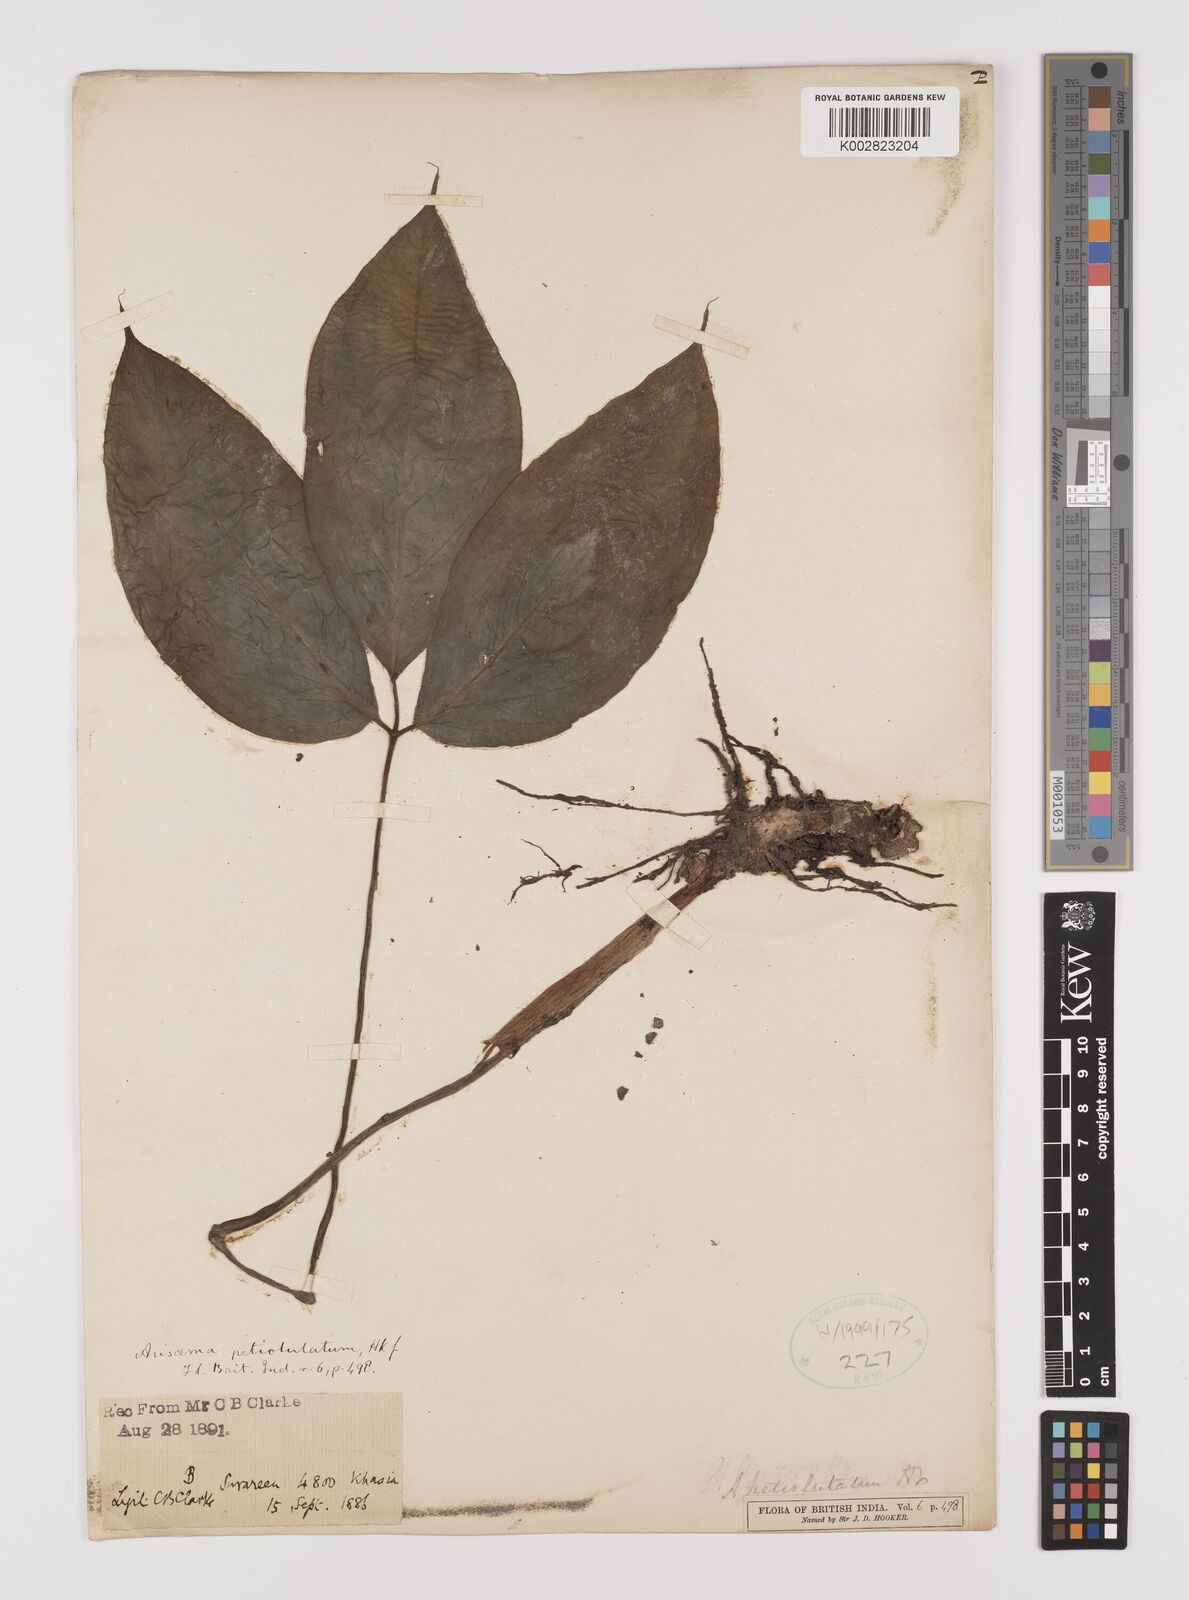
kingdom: Plantae
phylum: Tracheophyta
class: Liliopsida
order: Alismatales
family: Araceae
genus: Arisaema
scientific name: Arisaema petiolulatum
